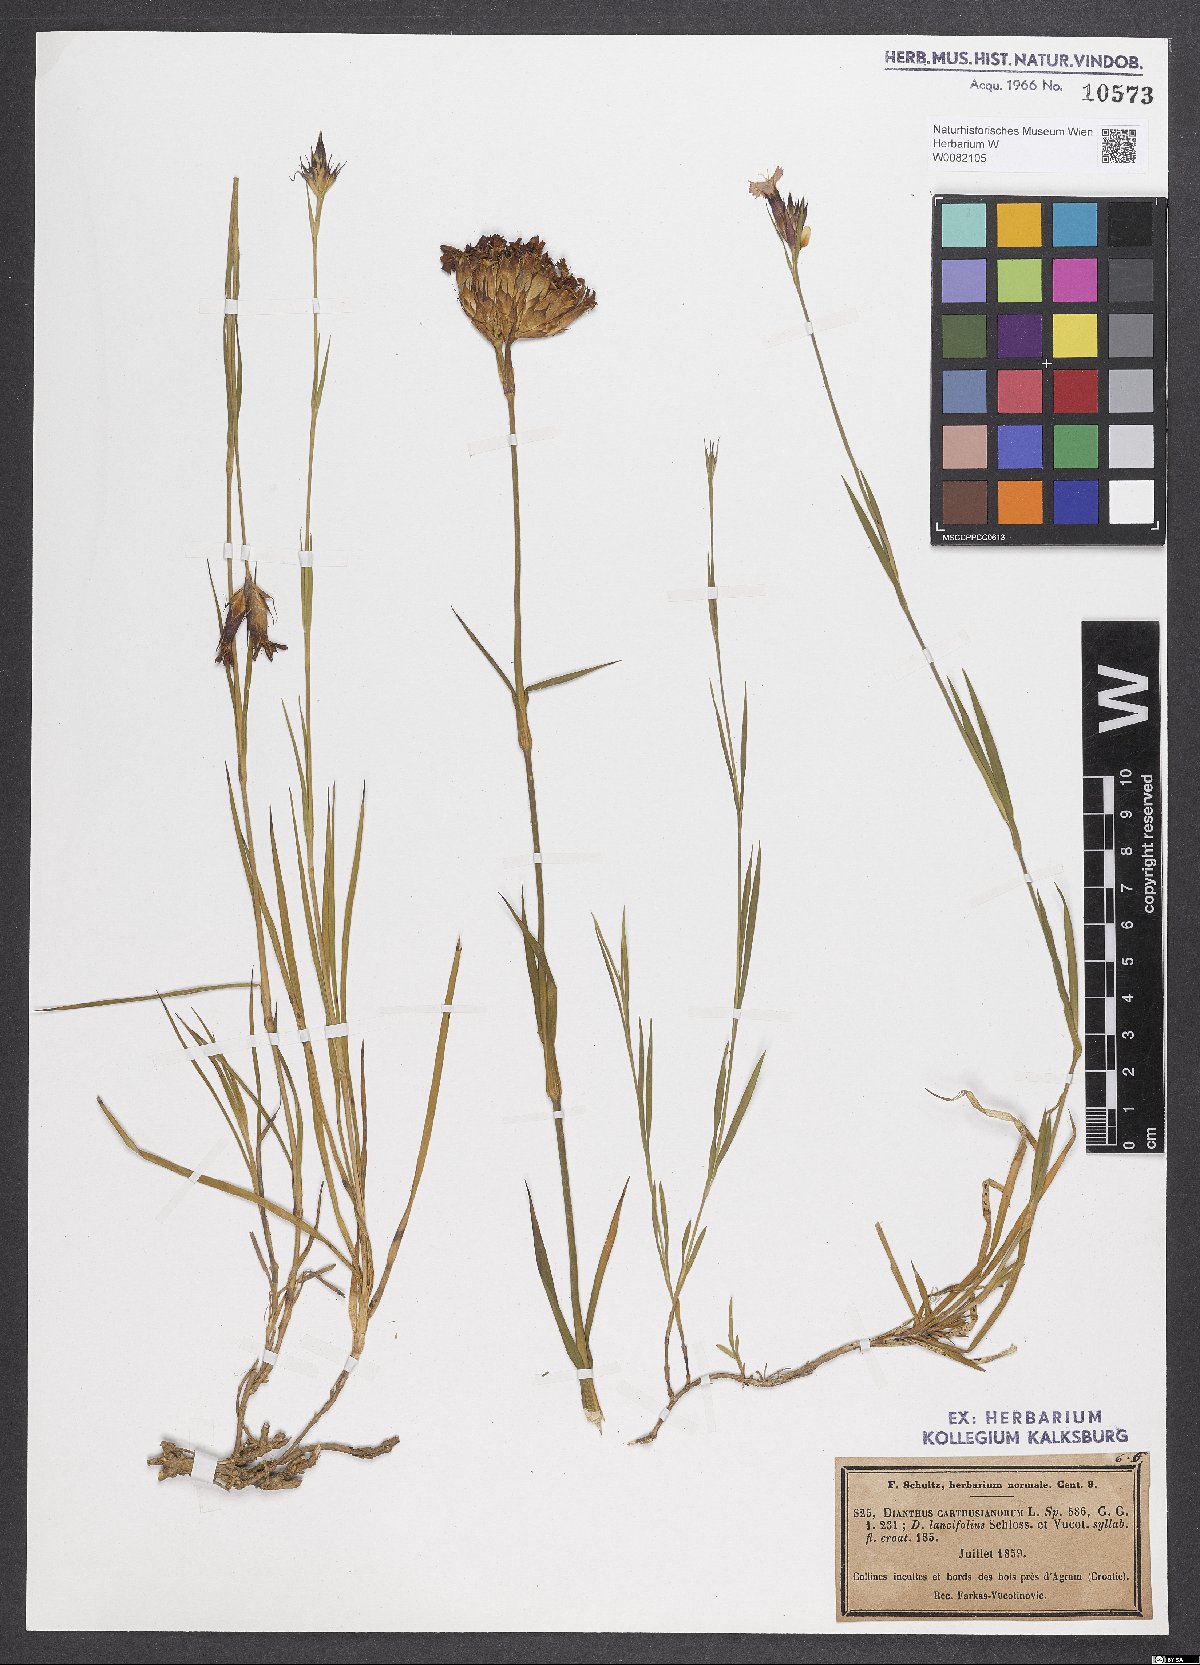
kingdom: Plantae
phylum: Tracheophyta
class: Magnoliopsida
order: Caryophyllales
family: Caryophyllaceae
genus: Dianthus
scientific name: Dianthus carthusianorum
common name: Carthusian pink
